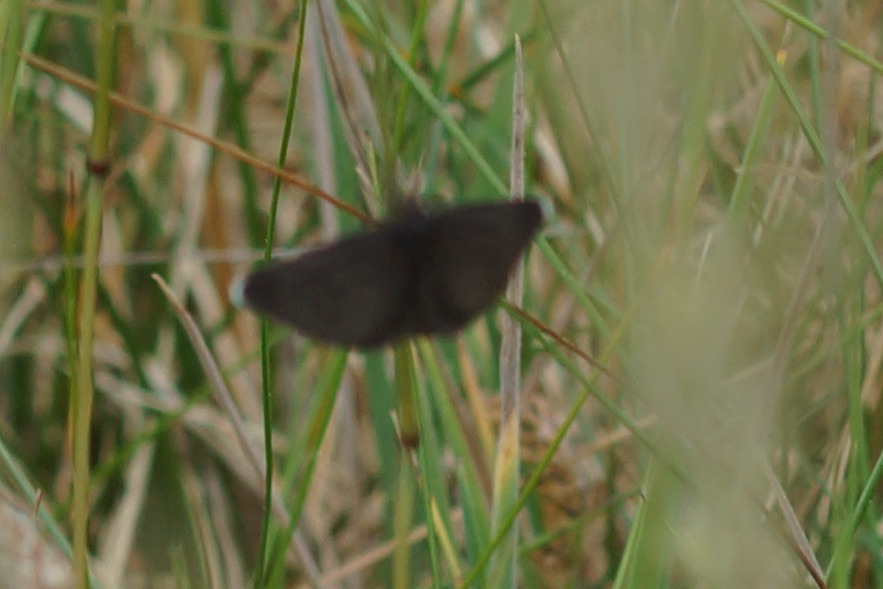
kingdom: Animalia
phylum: Arthropoda
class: Insecta
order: Lepidoptera
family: Geometridae
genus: Odezia
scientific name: Odezia atrata
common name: Sort måler
